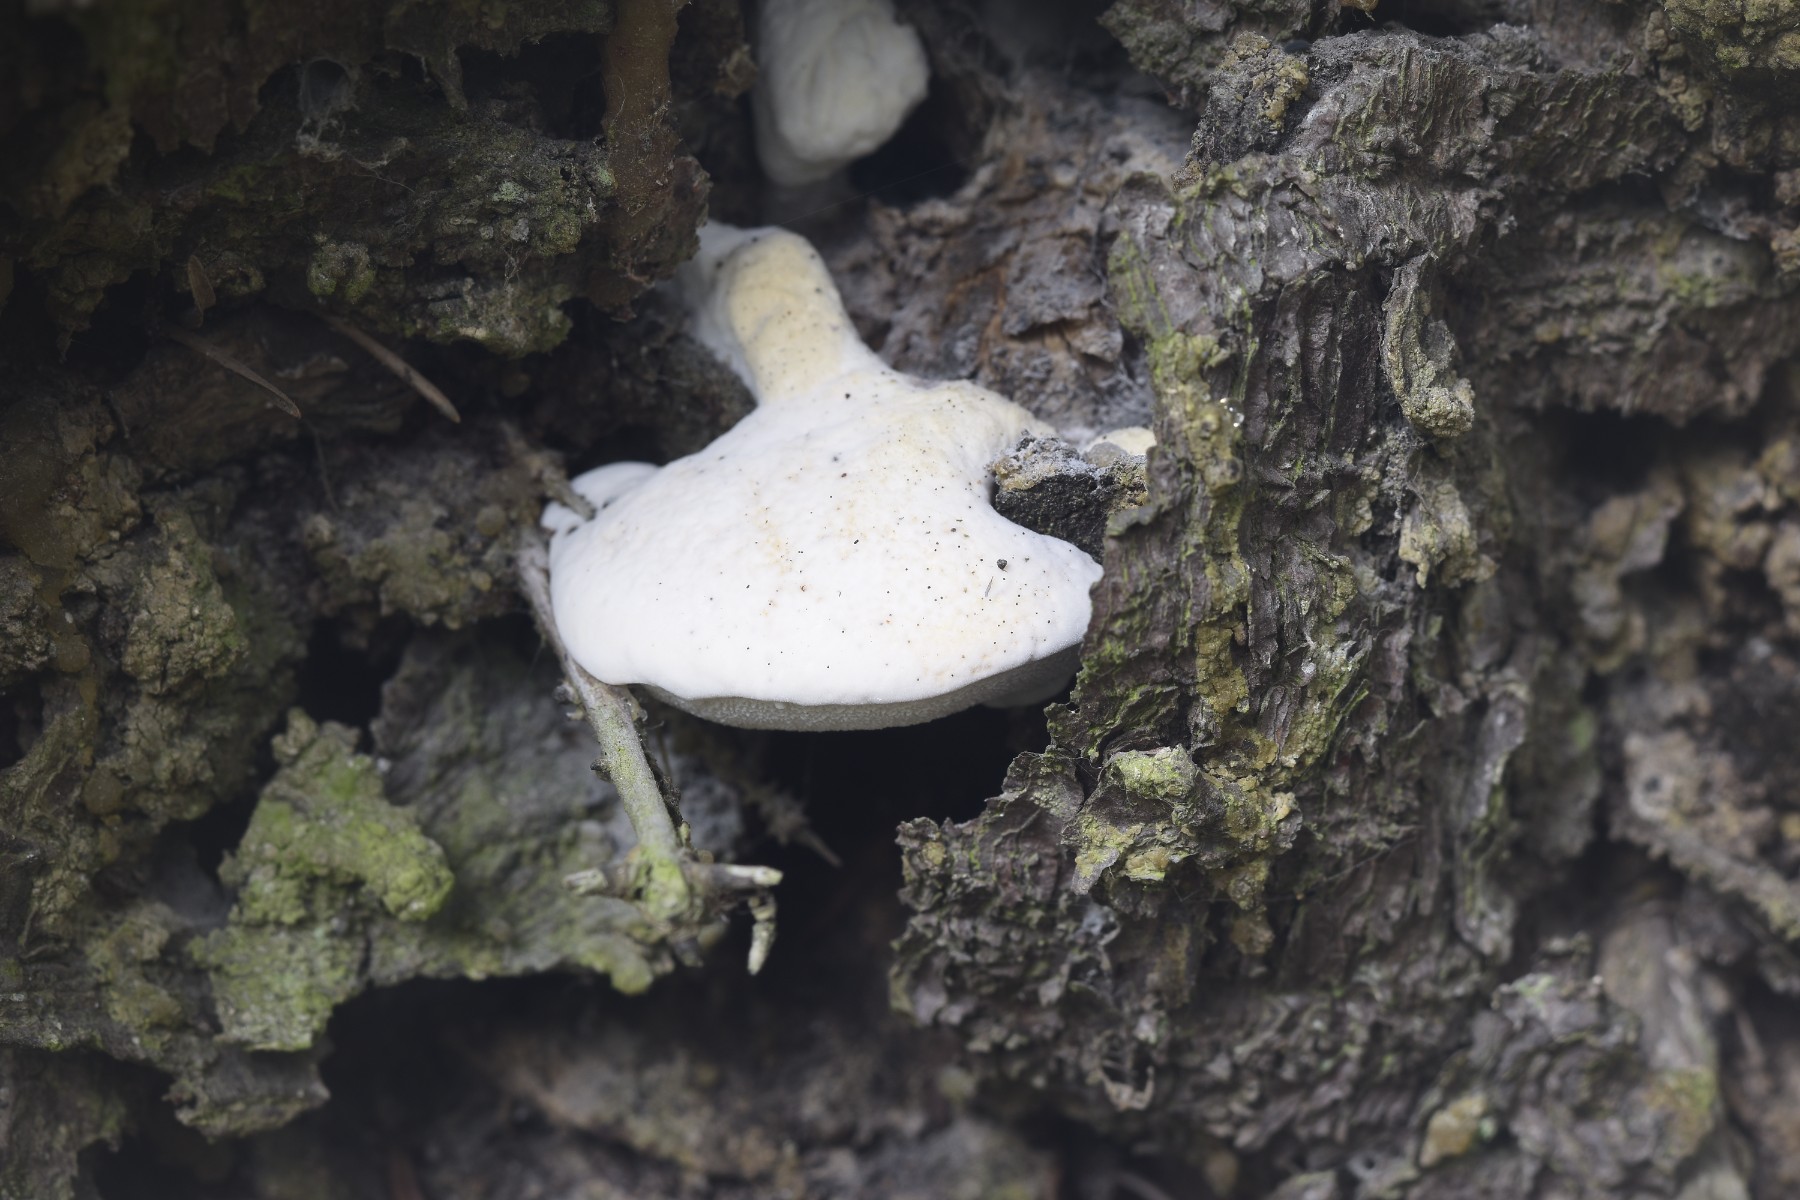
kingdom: Fungi
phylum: Basidiomycota
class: Agaricomycetes
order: Polyporales
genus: Amaropostia
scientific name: Amaropostia stiptica
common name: bitter kødporesvamp
